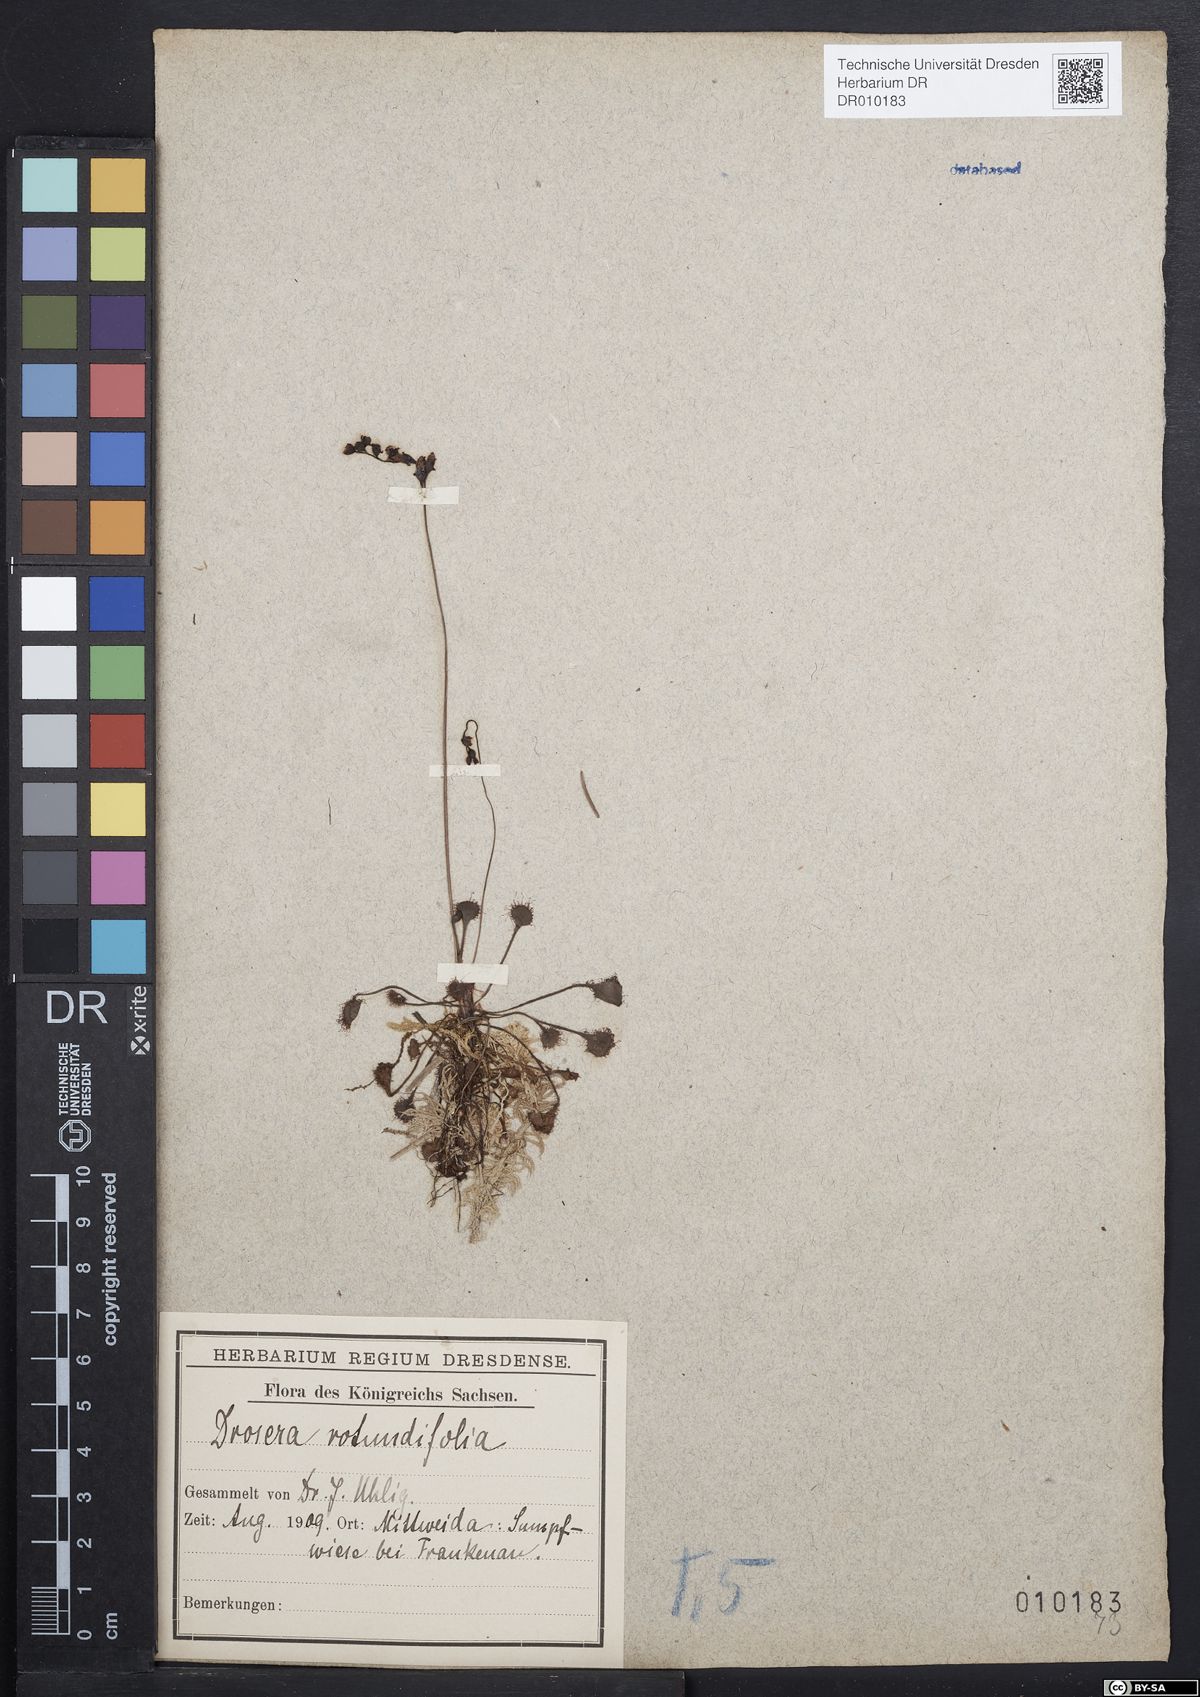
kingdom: Plantae
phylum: Tracheophyta
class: Magnoliopsida
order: Caryophyllales
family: Droseraceae
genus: Drosera
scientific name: Drosera rotundifolia
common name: Round-leaved sundew
